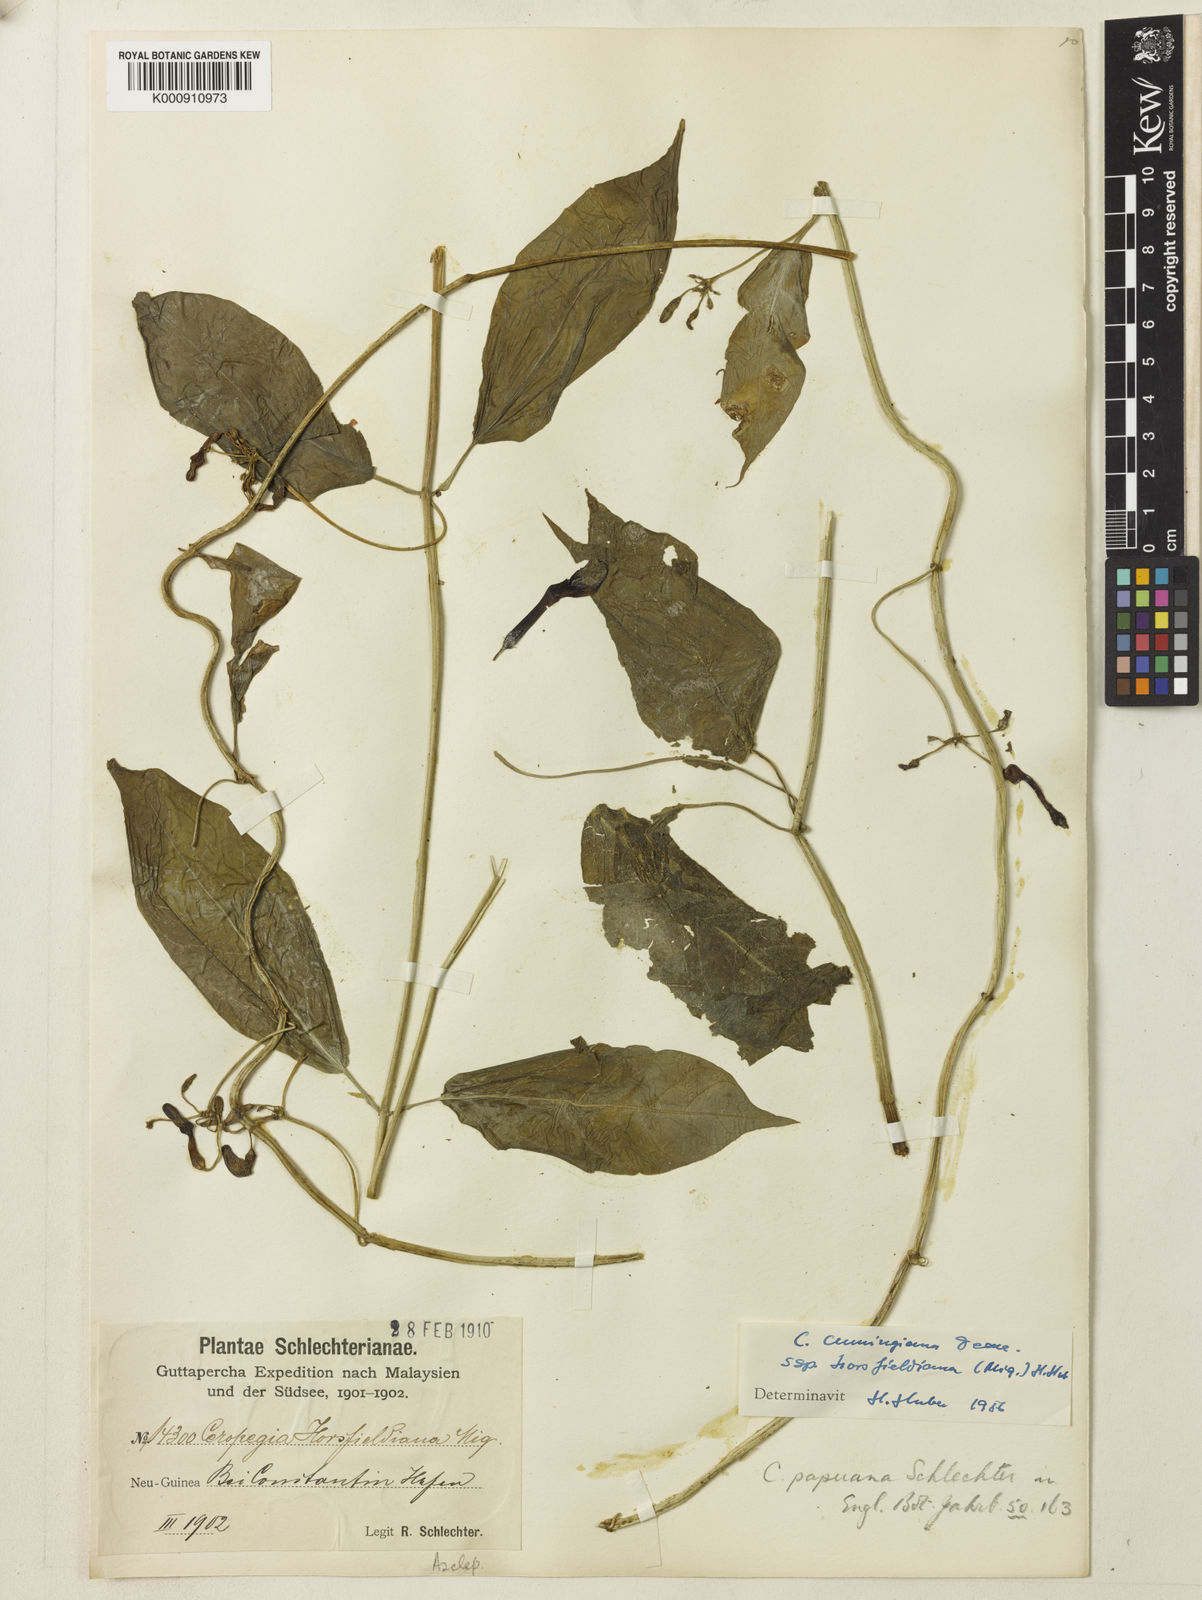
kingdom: Plantae
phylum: Tracheophyta
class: Magnoliopsida
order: Gentianales
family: Apocynaceae
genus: Ceropegia
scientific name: Ceropegia cumingiana
